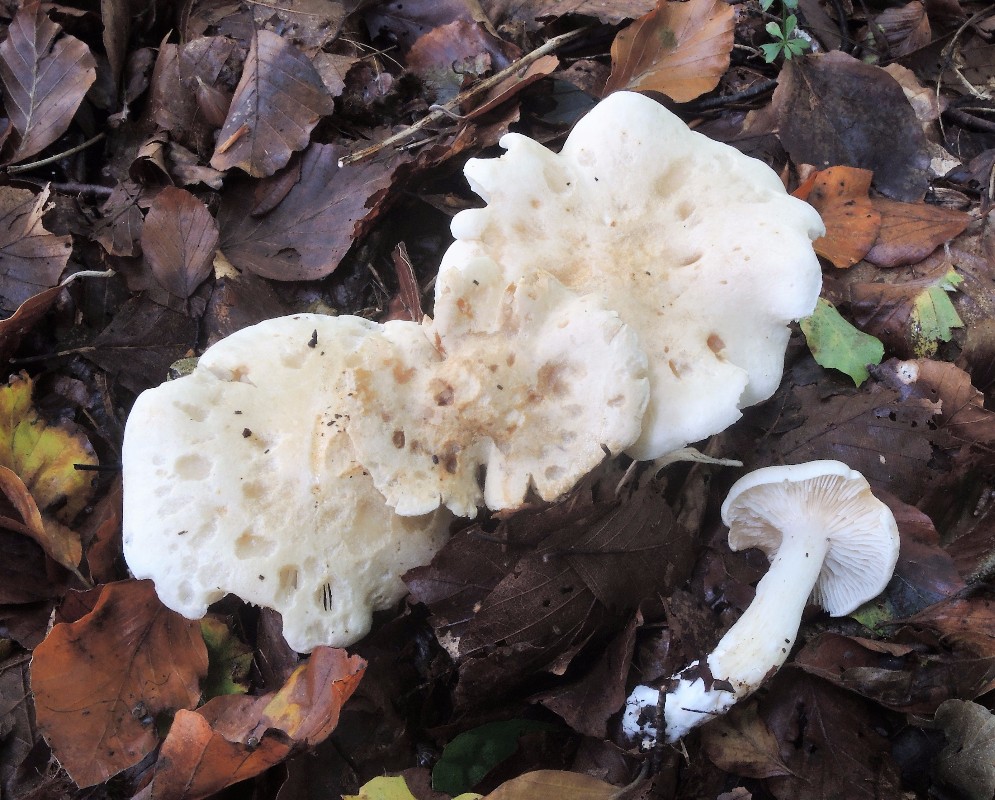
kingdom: Fungi
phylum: Basidiomycota
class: Agaricomycetes
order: Agaricales
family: Tricholomataceae
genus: Tricholoma
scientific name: Tricholoma lascivum
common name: stinkende ridderhat
